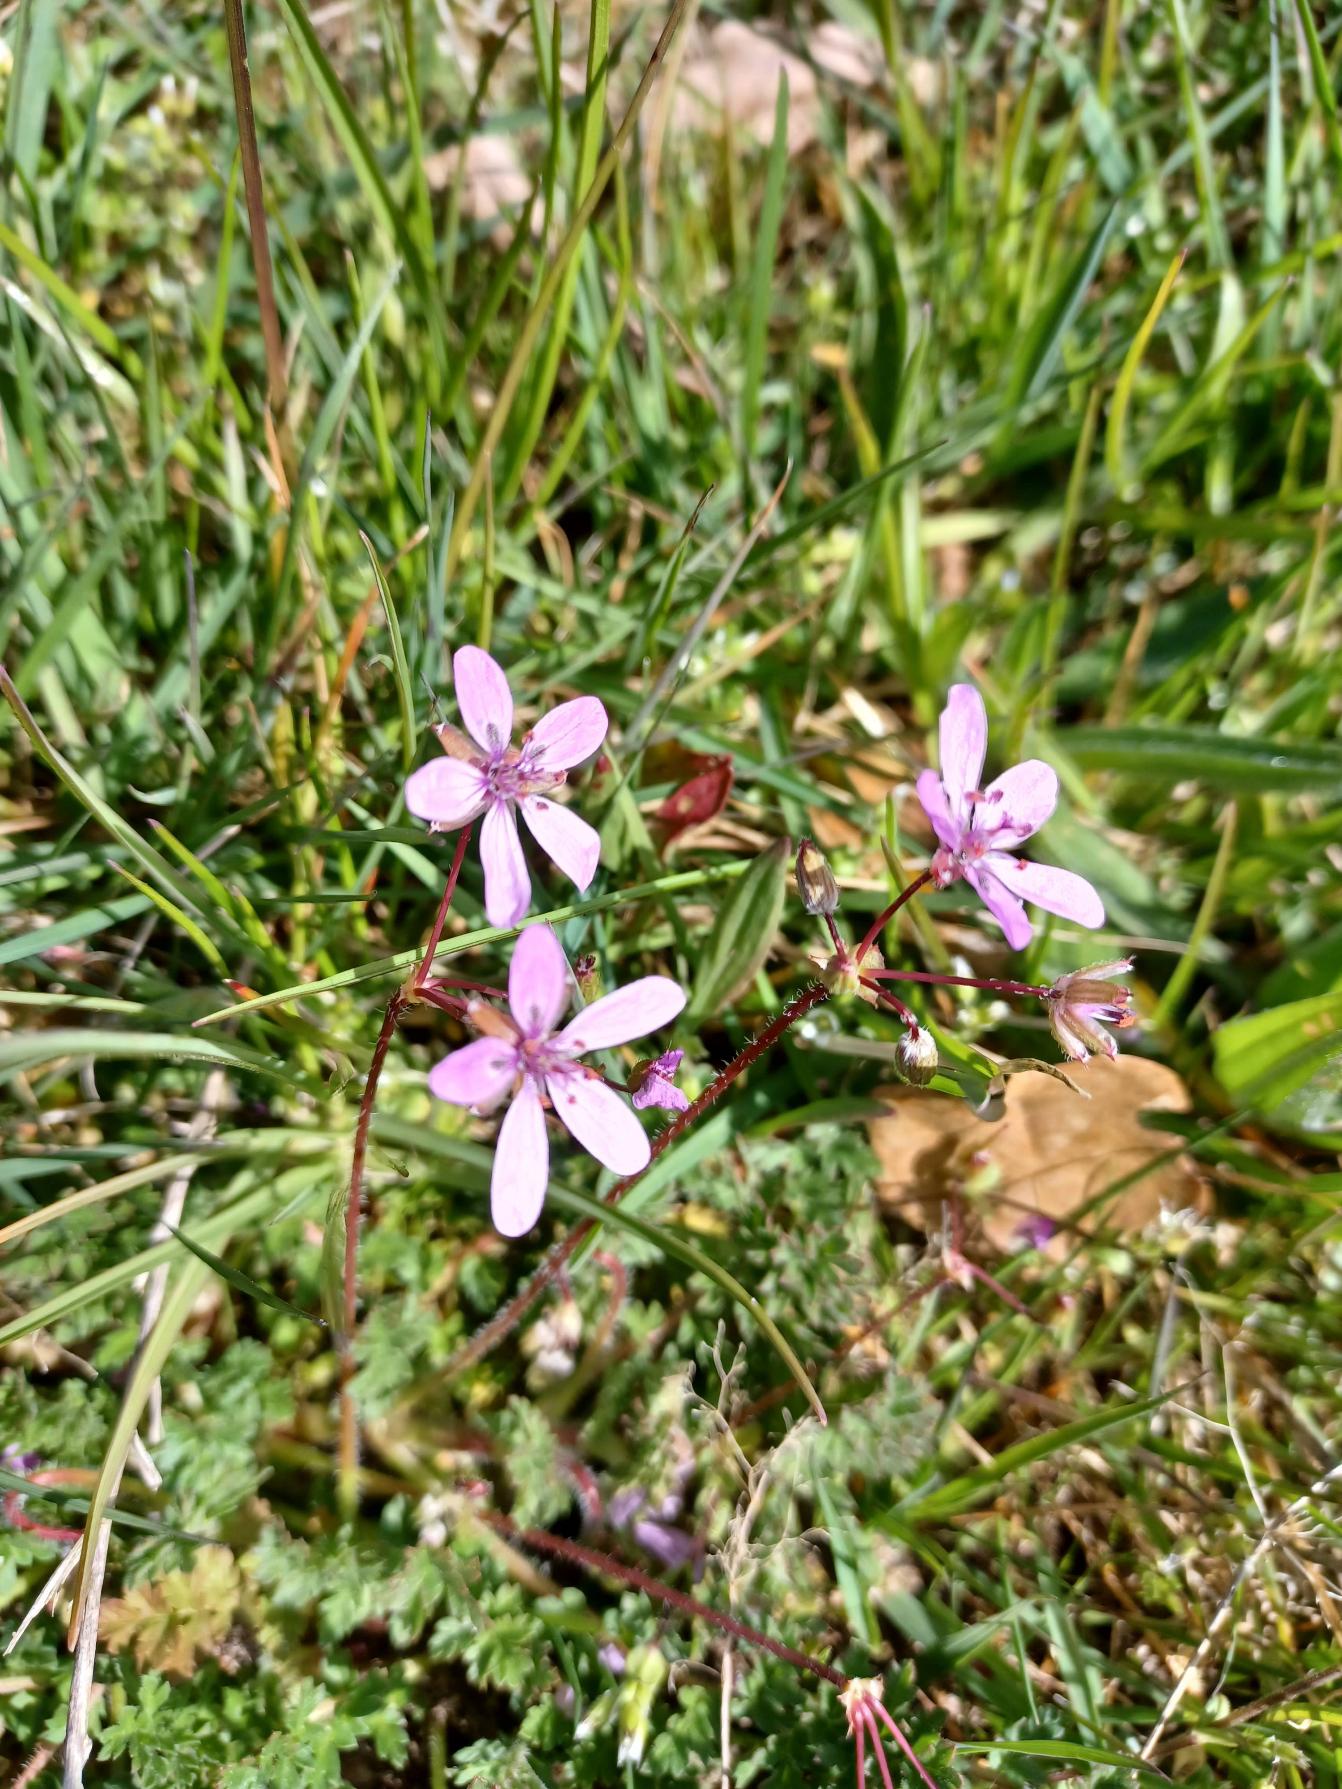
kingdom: Plantae
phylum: Tracheophyta
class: Magnoliopsida
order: Geraniales
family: Geraniaceae
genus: Erodium
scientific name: Erodium cicutarium
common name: Hejrenæb
